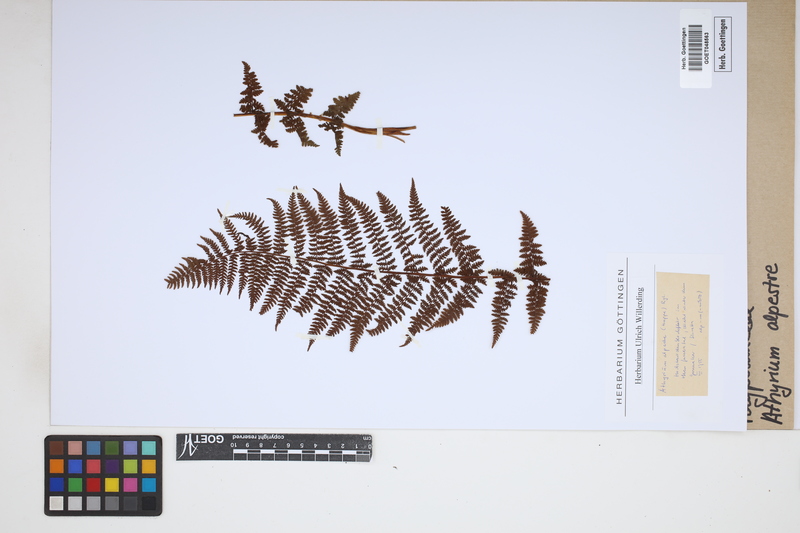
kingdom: Plantae
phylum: Tracheophyta
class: Polypodiopsida
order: Polypodiales
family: Athyriaceae
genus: Pseudathyrium
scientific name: Pseudathyrium alpestre
